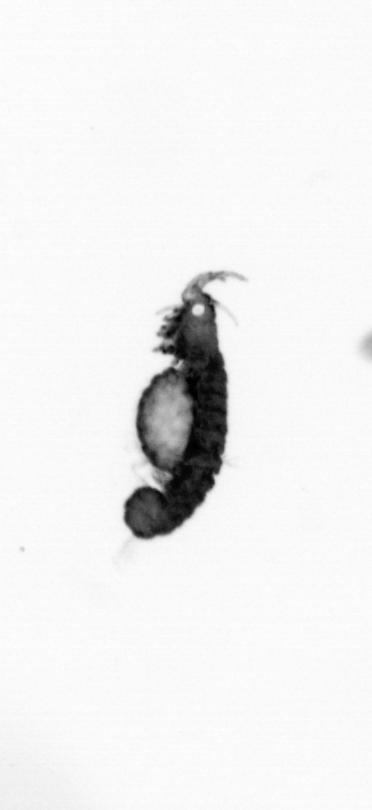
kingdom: Animalia
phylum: Annelida
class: Polychaeta
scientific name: Polychaeta
